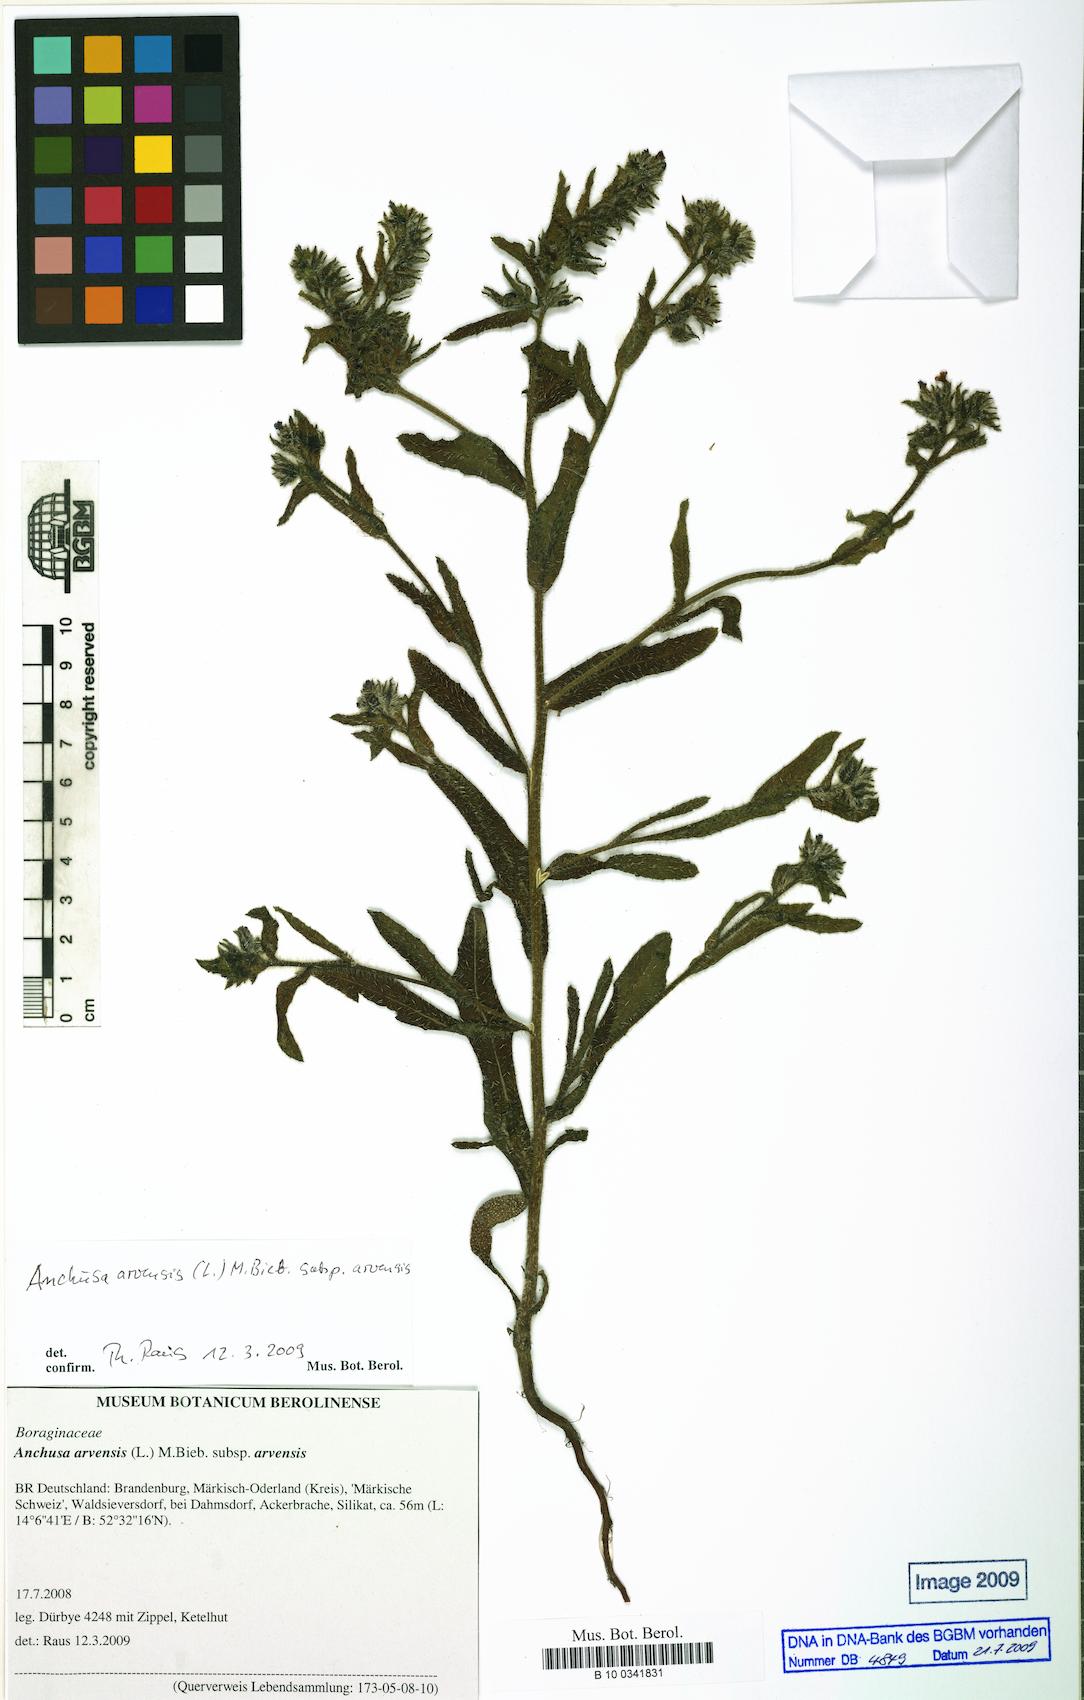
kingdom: Plantae
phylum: Tracheophyta
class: Magnoliopsida
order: Boraginales
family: Boraginaceae
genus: Lycopsis
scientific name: Lycopsis arvensis
